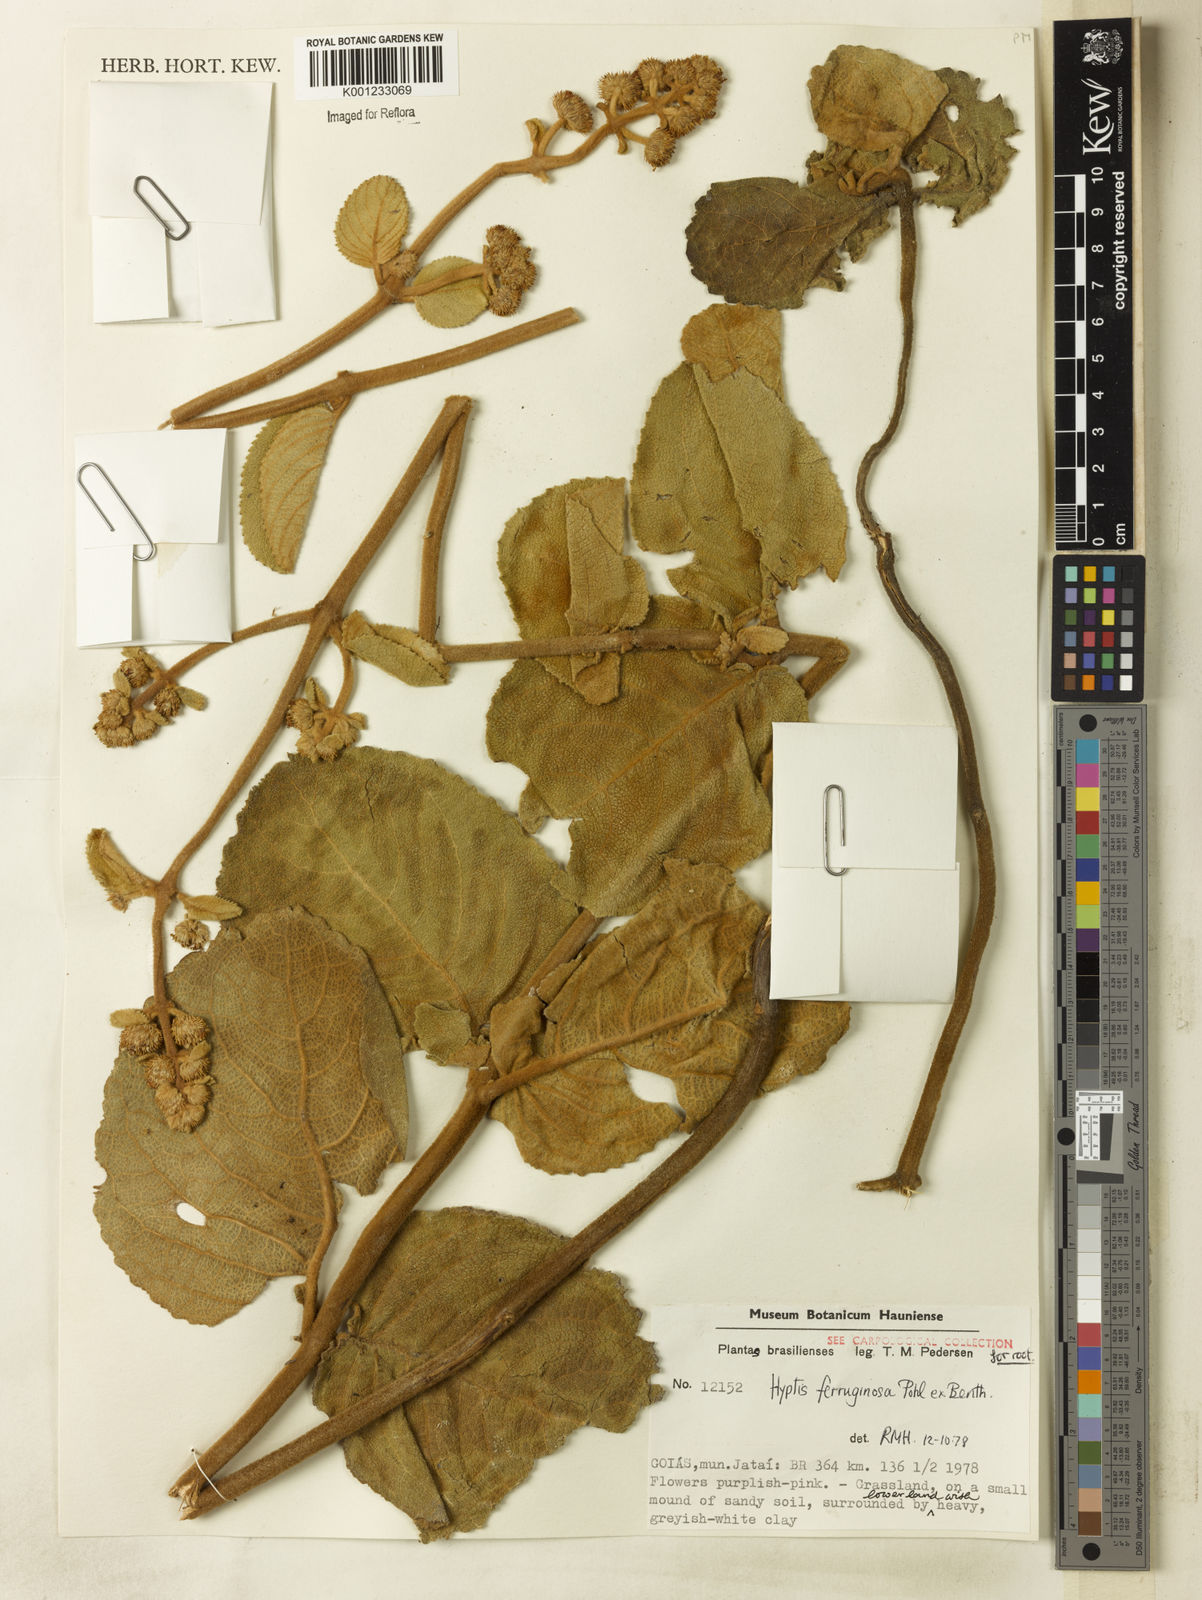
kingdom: Plantae
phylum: Tracheophyta
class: Magnoliopsida
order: Lamiales
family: Lamiaceae
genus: Hyptis
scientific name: Hyptis ferruginosa
